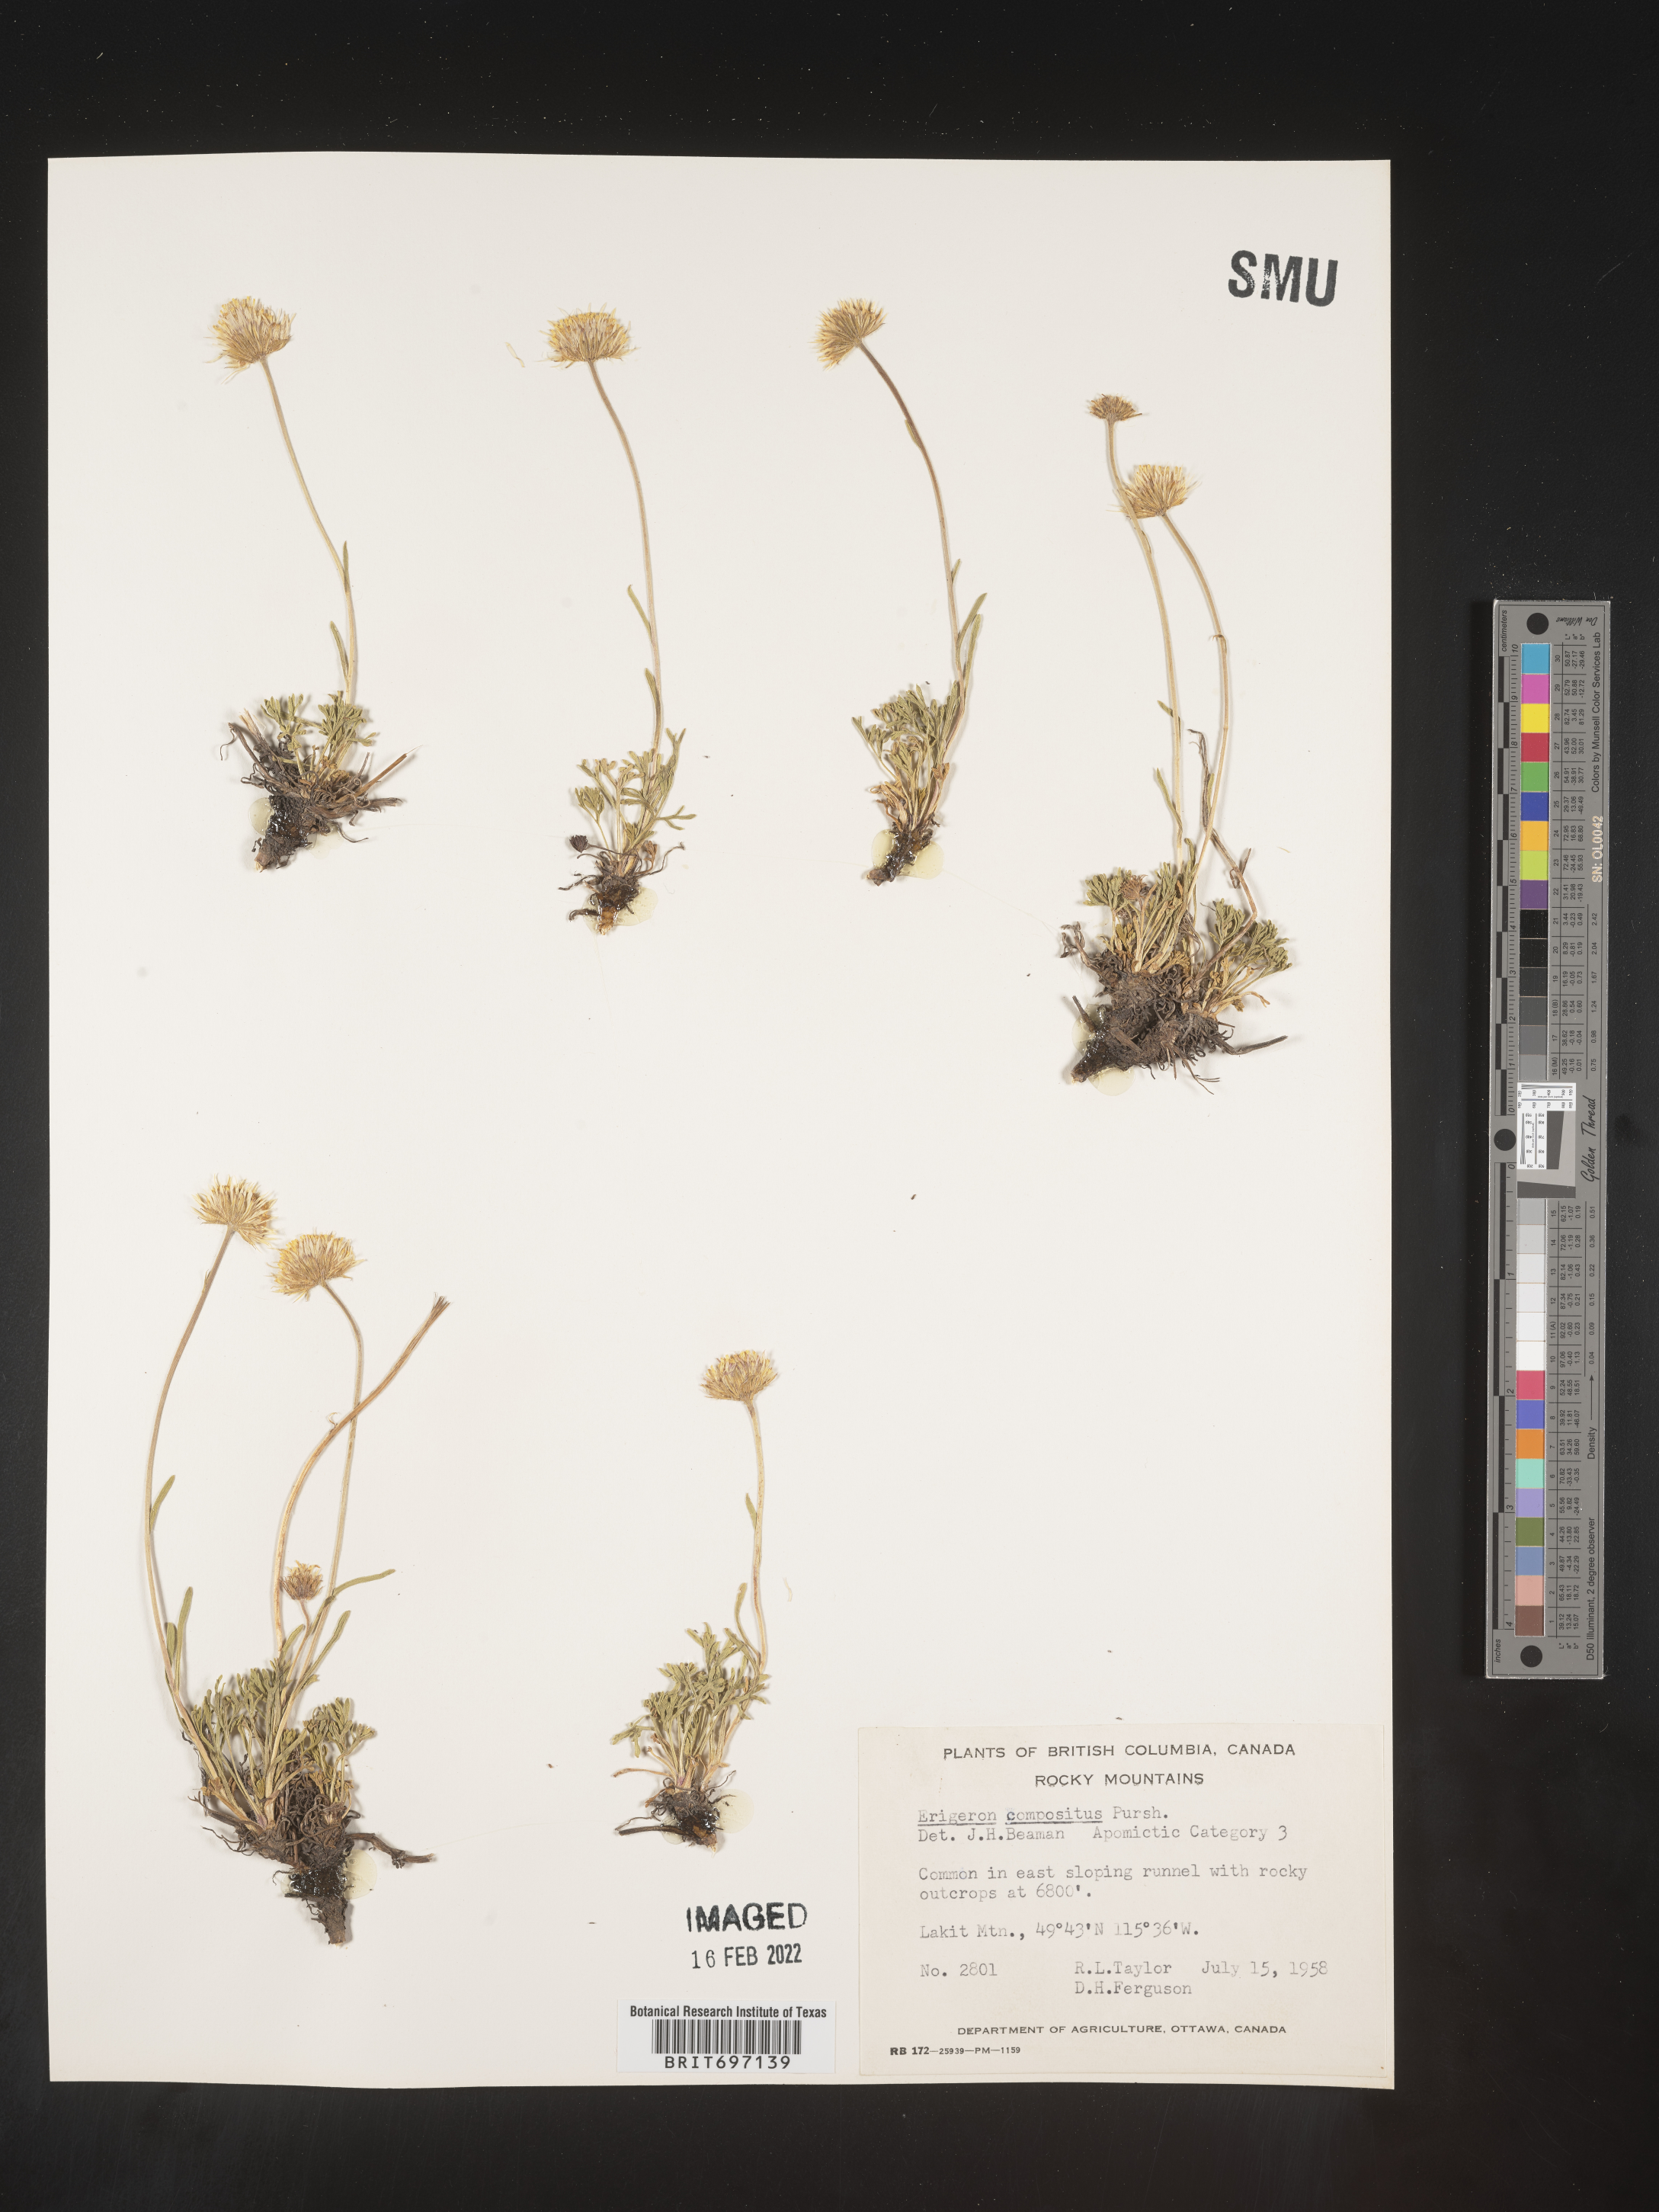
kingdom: Plantae
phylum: Tracheophyta
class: Magnoliopsida
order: Asterales
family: Asteraceae
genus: Erigeron
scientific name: Erigeron compositus
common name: Dwarf mountain fleabane
